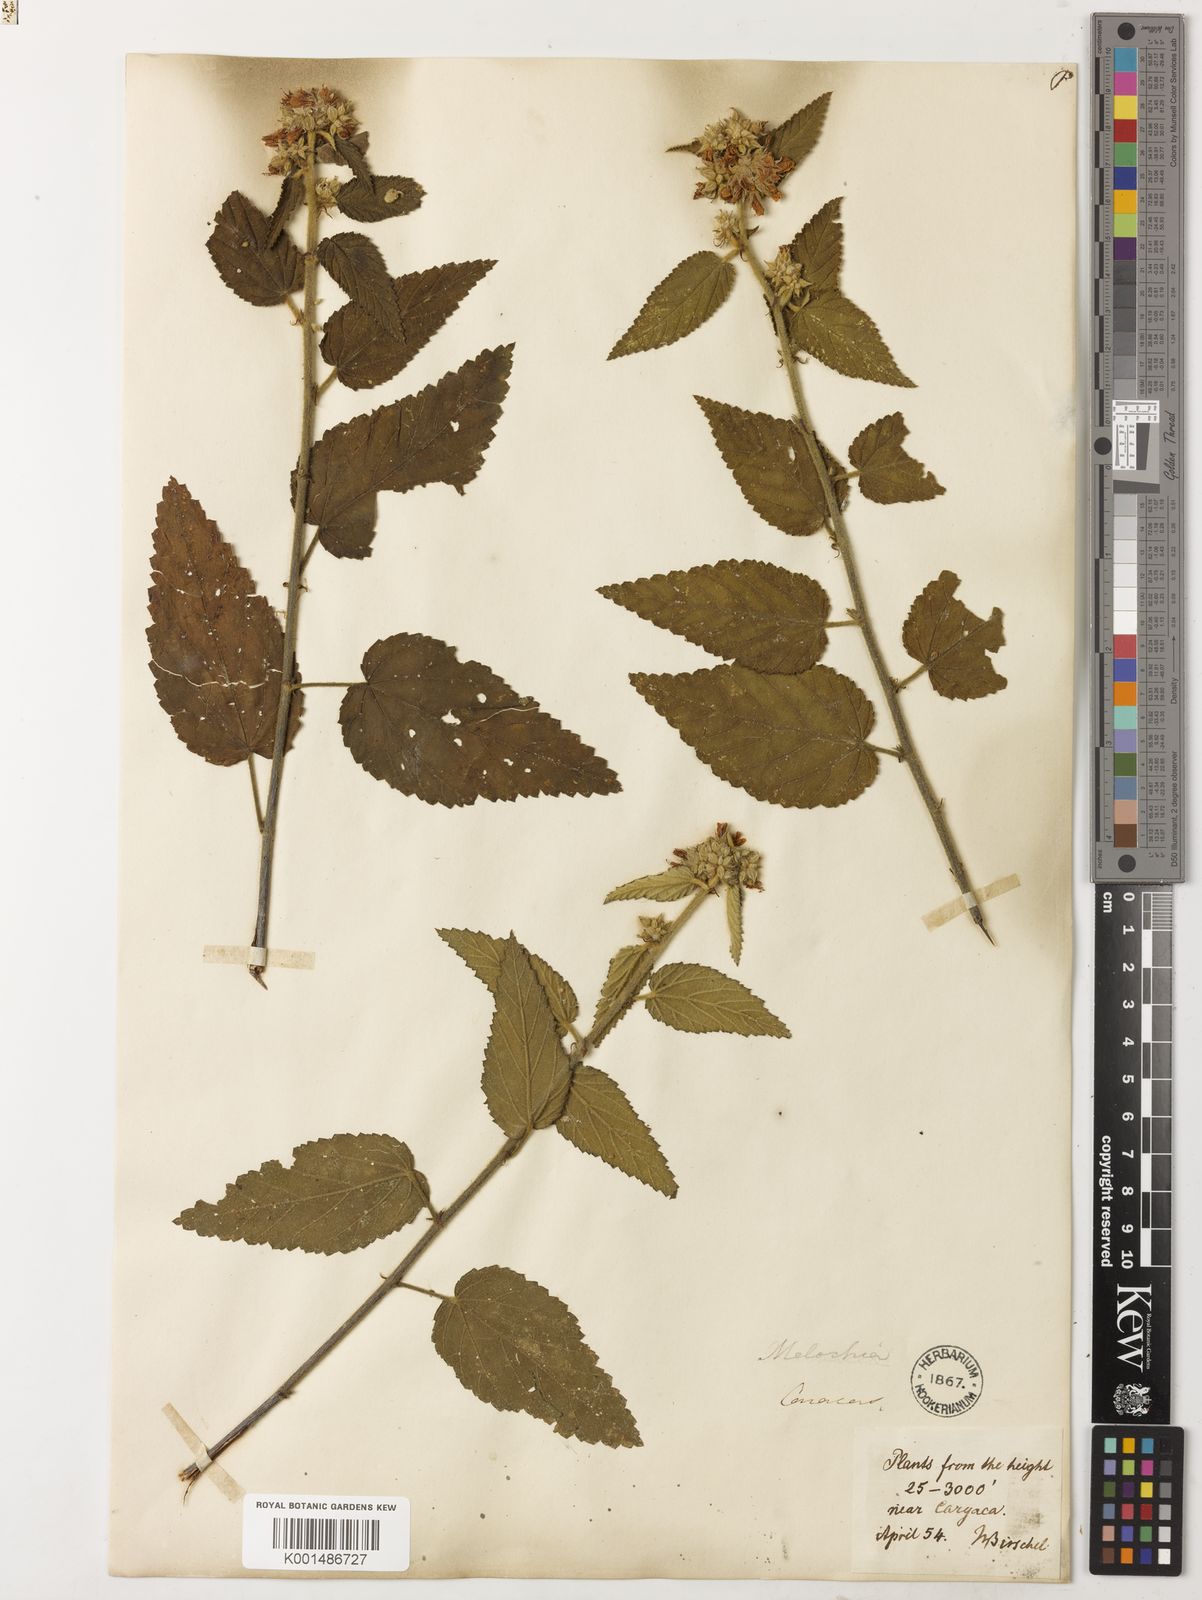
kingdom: Plantae
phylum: Tracheophyta
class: Magnoliopsida
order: Malvales
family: Malvaceae
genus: Melochia
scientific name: Melochia caracasana
